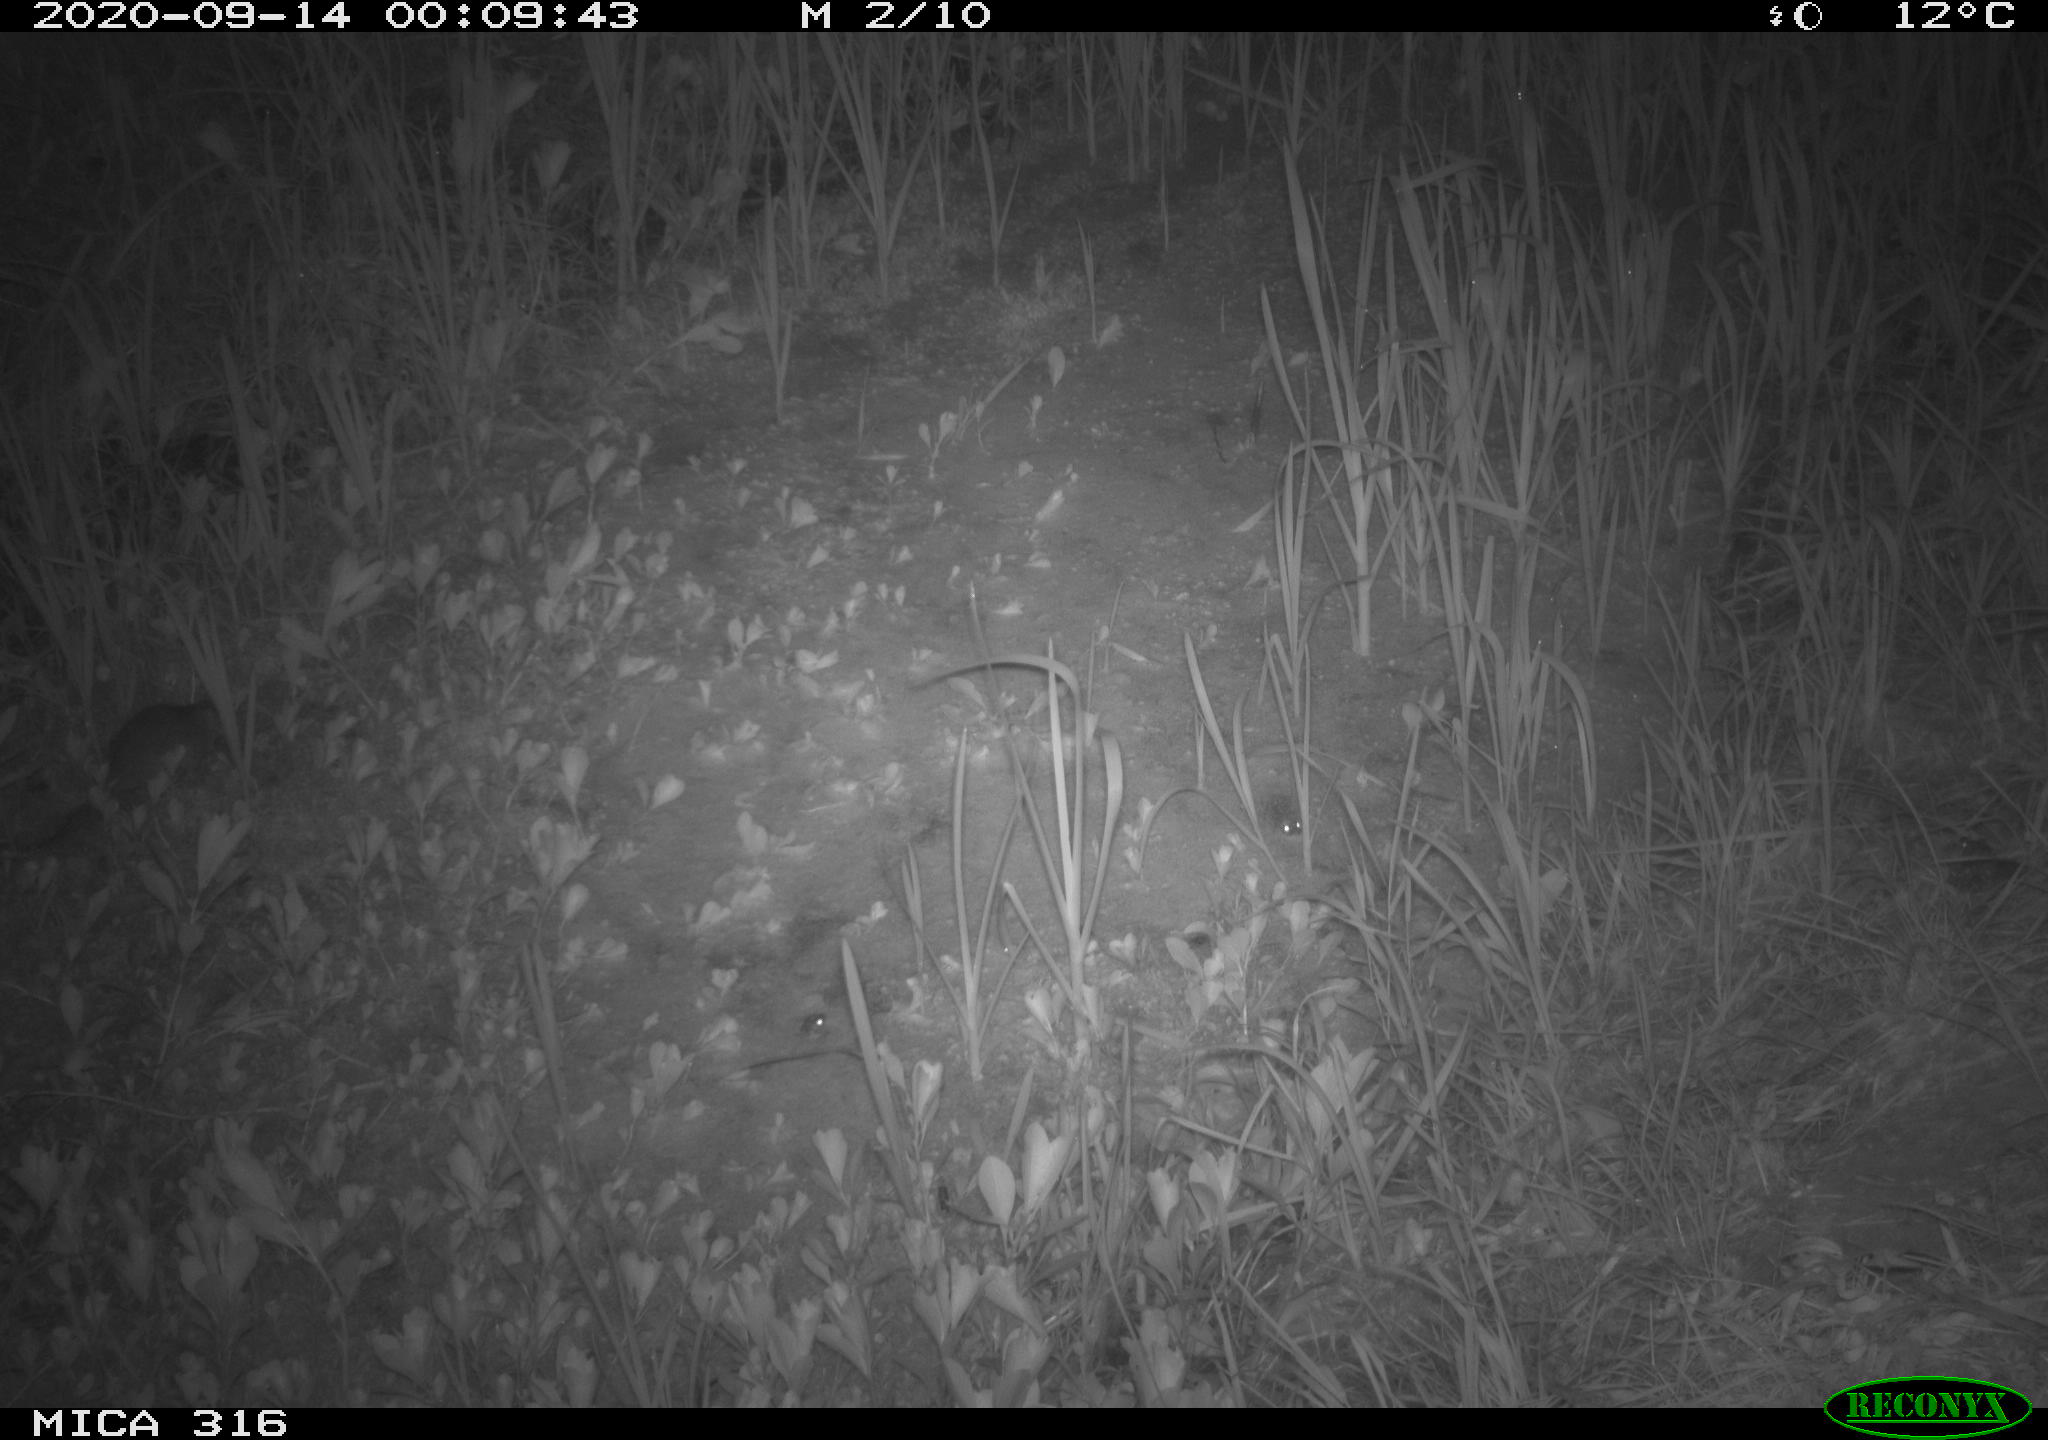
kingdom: Animalia
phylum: Chordata
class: Mammalia
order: Rodentia
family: Muridae
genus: Rattus
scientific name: Rattus norvegicus
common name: Brown rat
